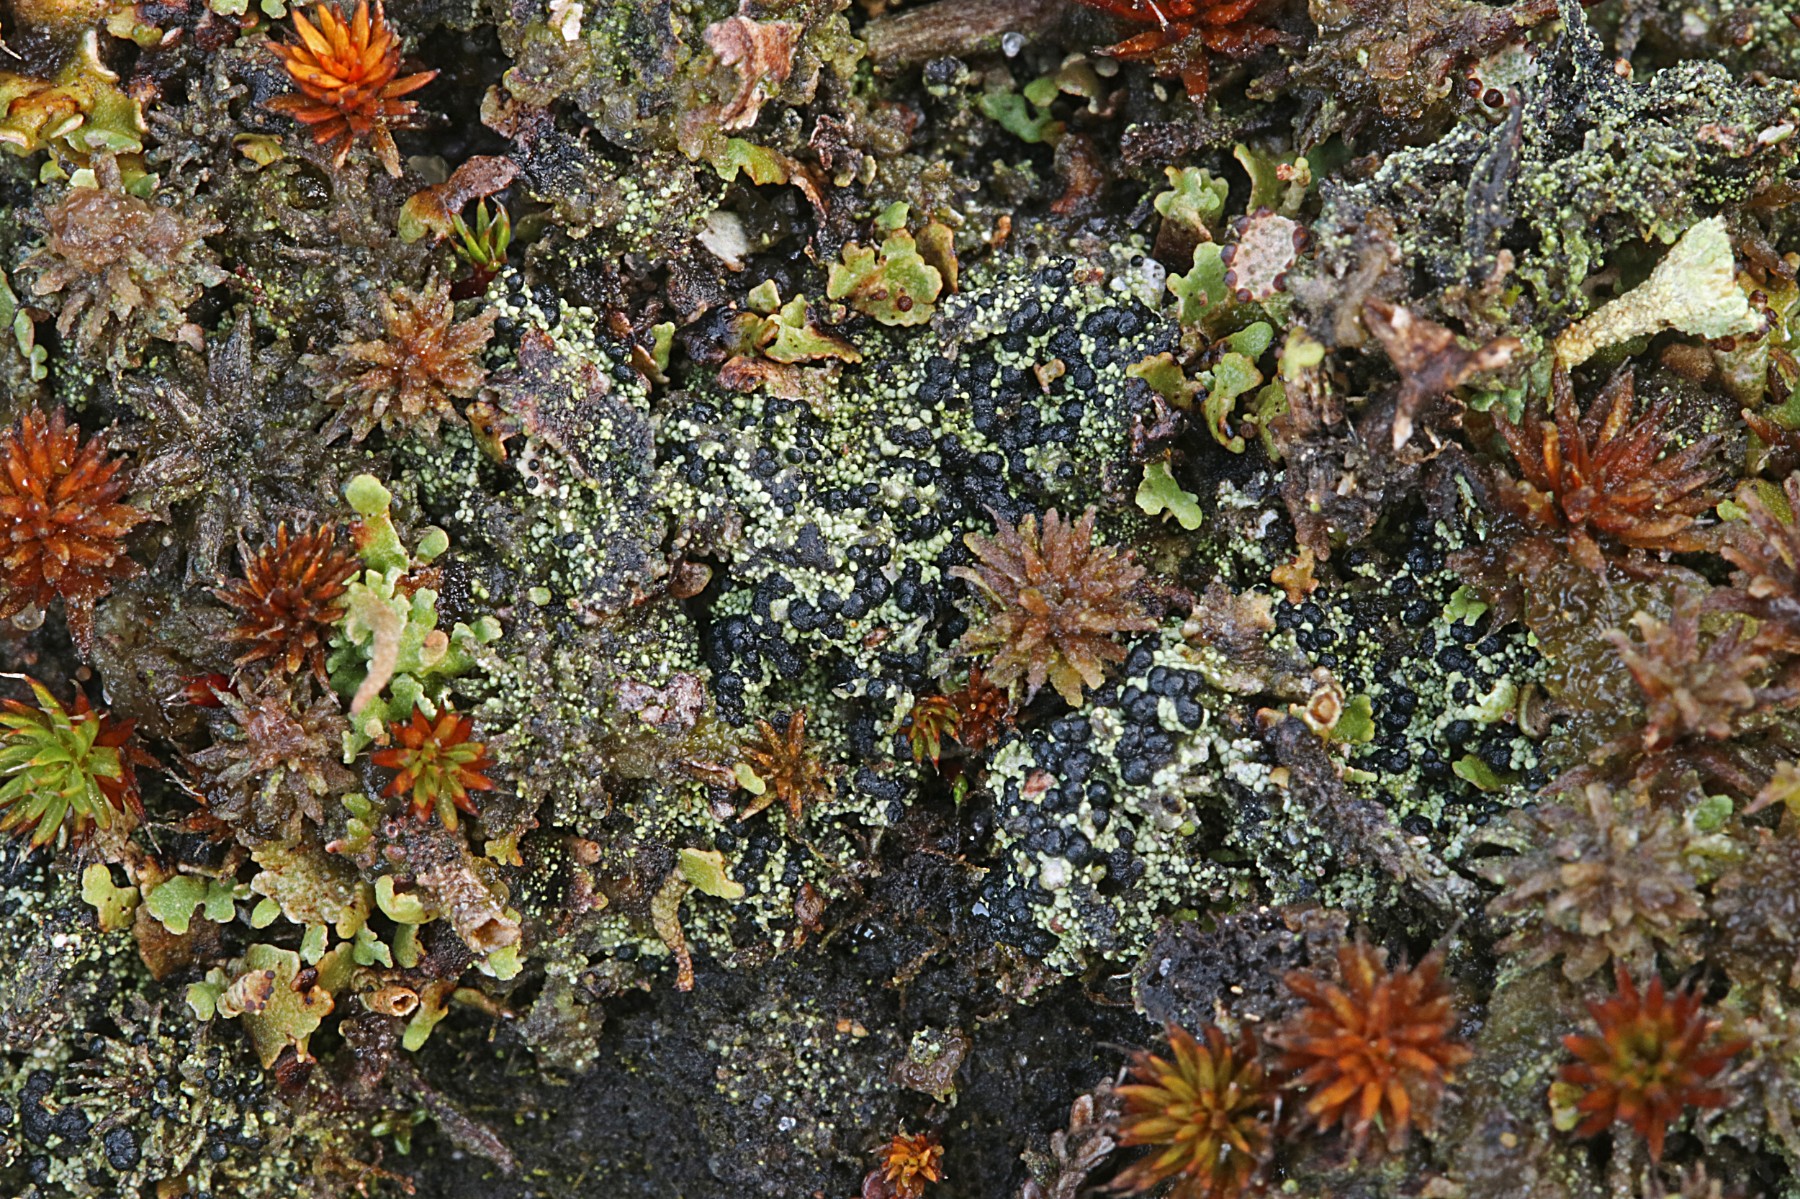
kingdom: Fungi
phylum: Ascomycota
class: Lecanoromycetes
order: Lecanorales
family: Byssolomataceae
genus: Micarea
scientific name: Micarea lignaria
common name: tørve-knaplav
